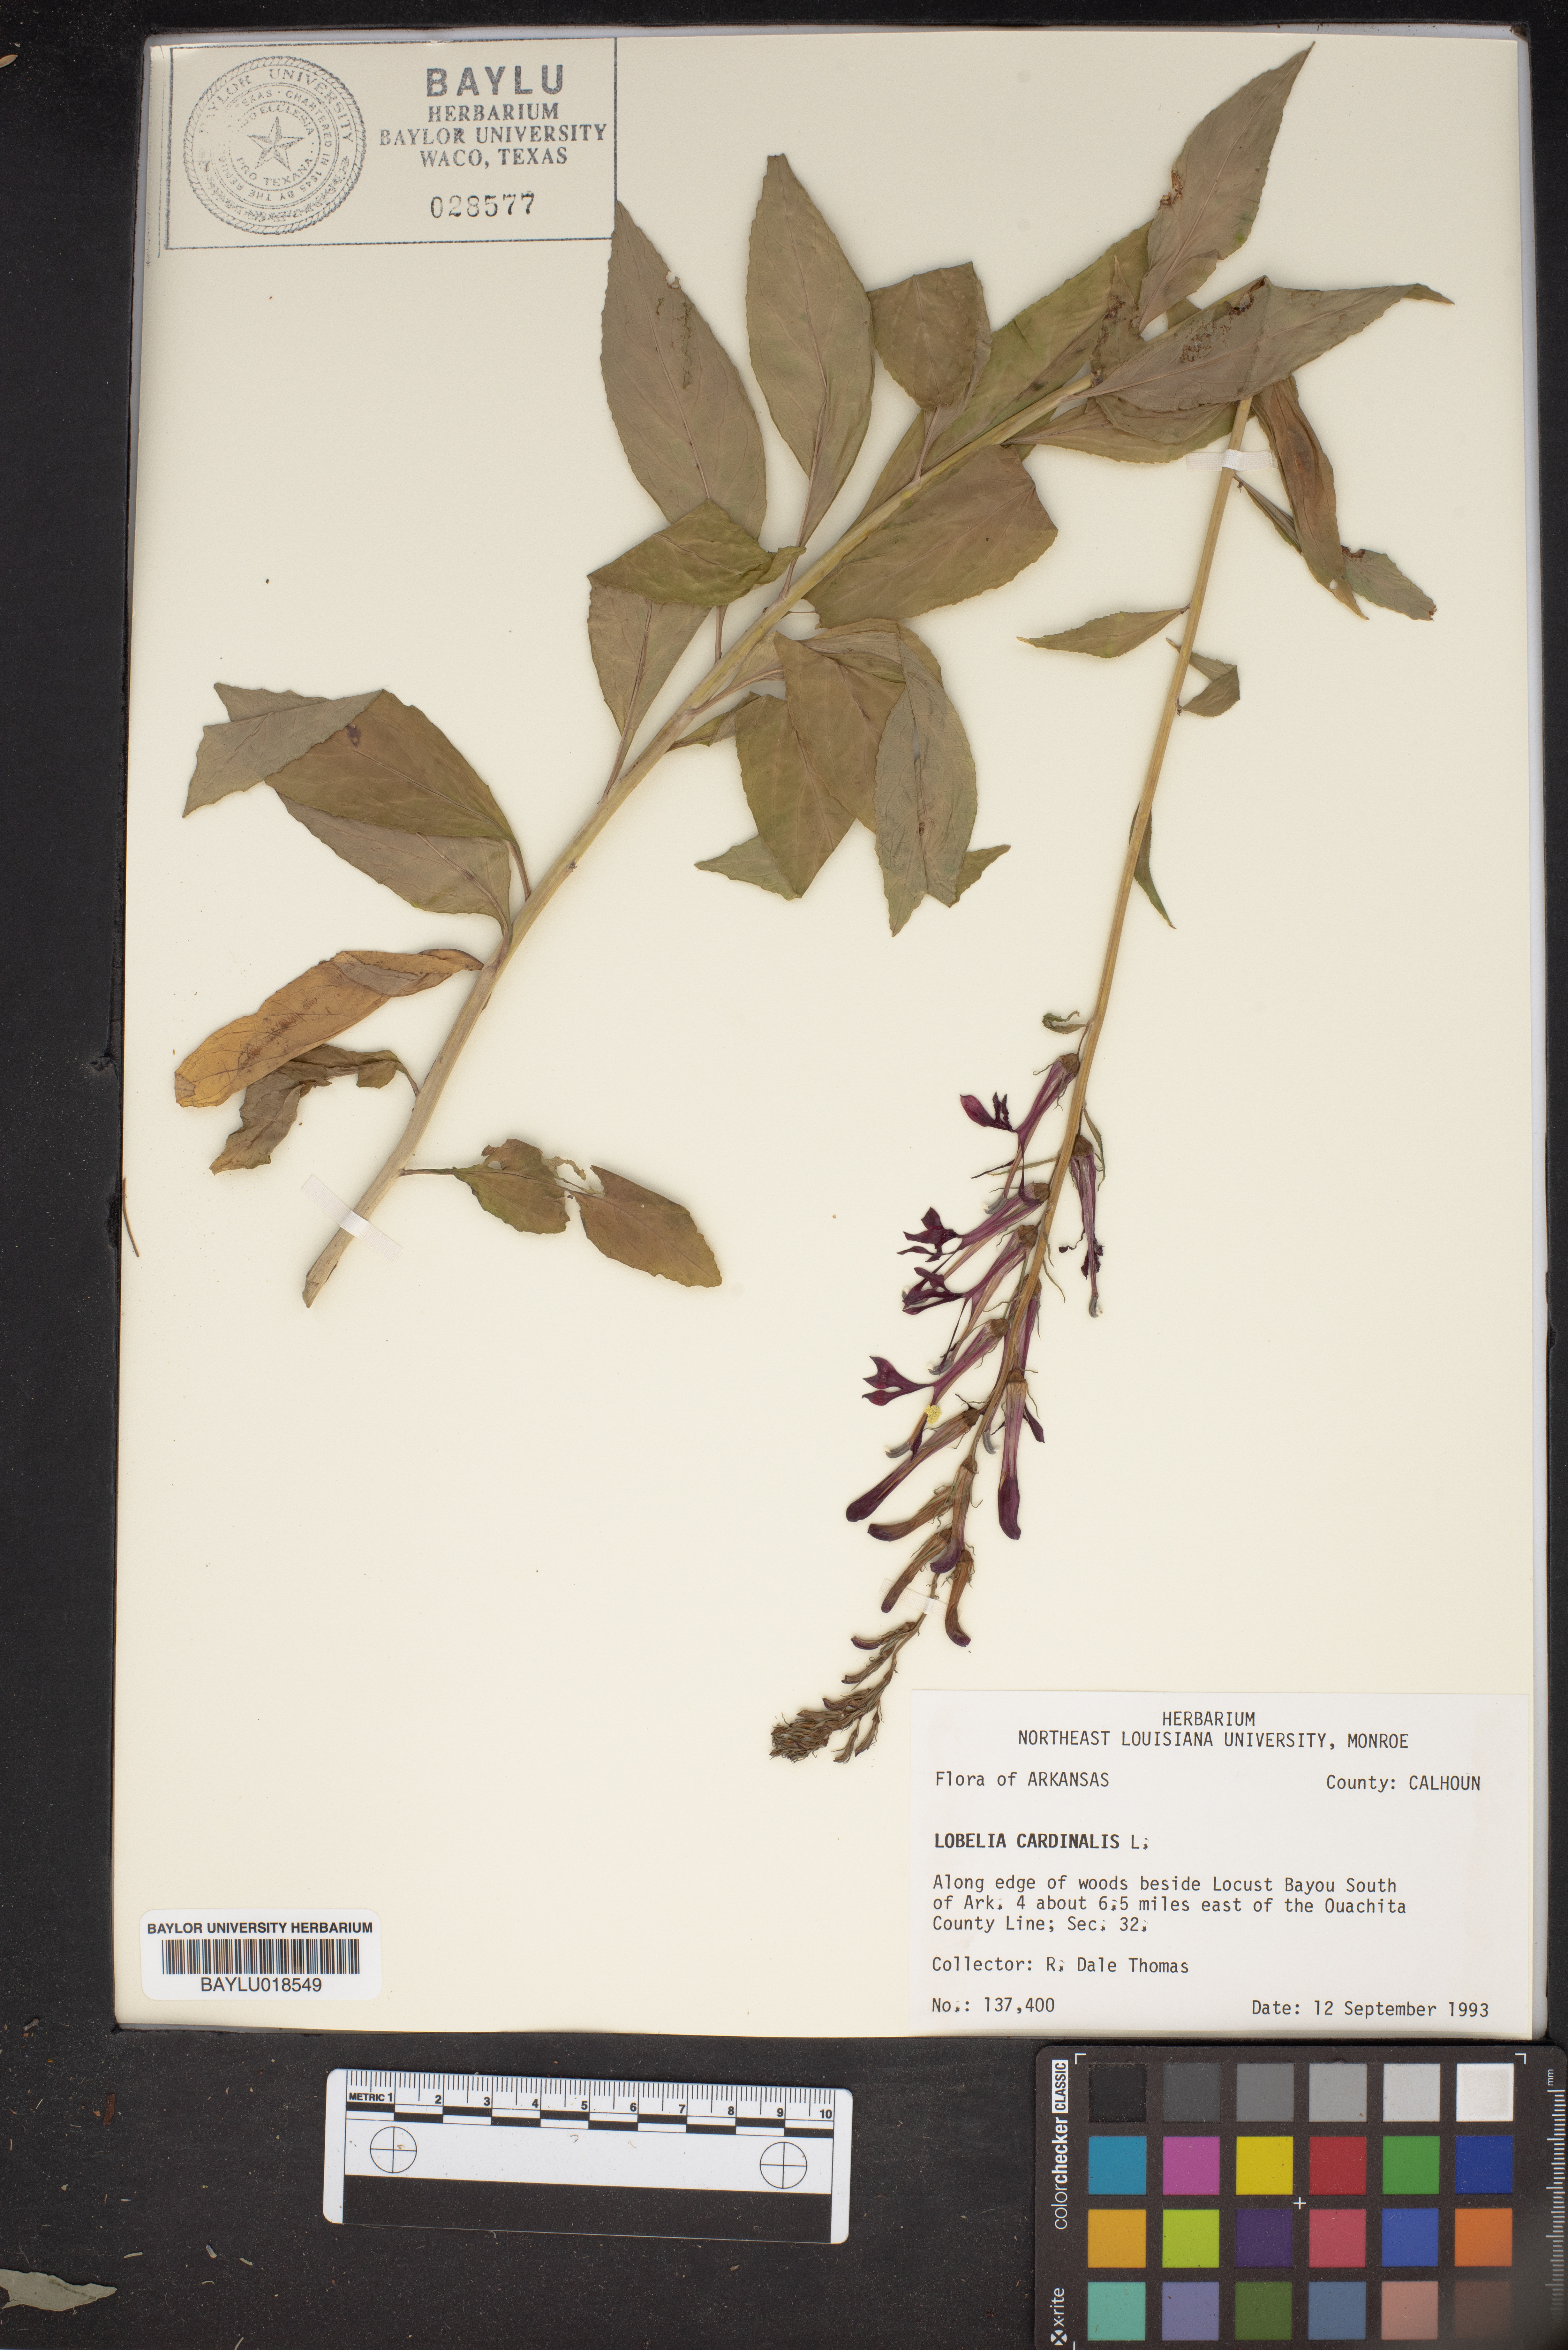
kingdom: Plantae
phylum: Tracheophyta
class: Magnoliopsida
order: Asterales
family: Campanulaceae
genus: Lobelia
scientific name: Lobelia cardinalis
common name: Cardinal flower
